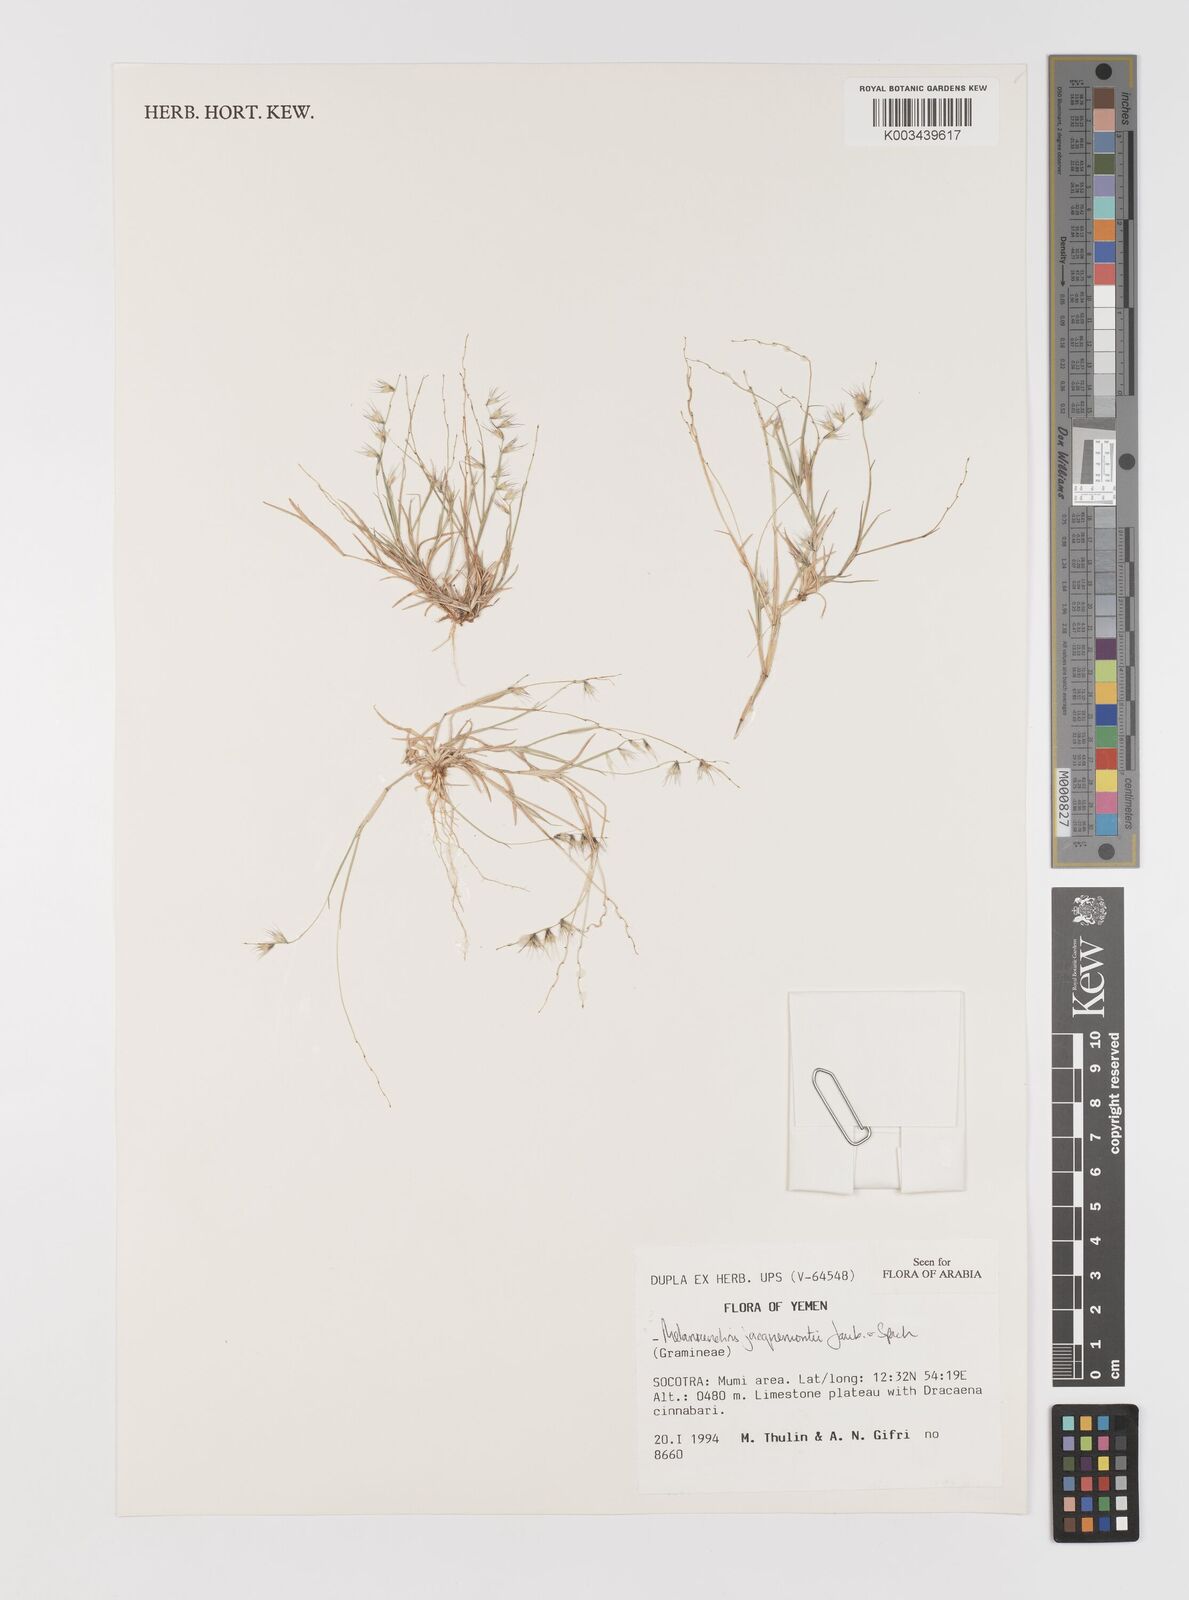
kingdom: Plantae
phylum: Tracheophyta
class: Liliopsida
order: Poales
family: Poaceae
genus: Melanocenchris
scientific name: Melanocenchris jacquemontii
